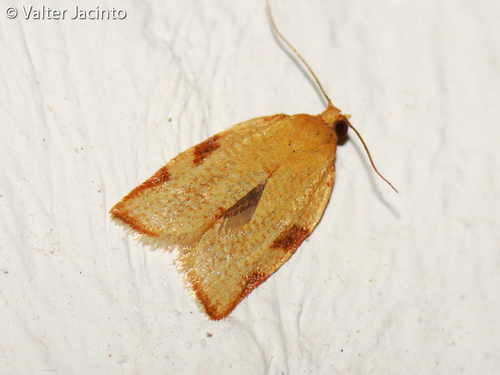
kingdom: Animalia
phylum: Arthropoda
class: Insecta
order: Lepidoptera
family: Tortricidae
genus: Clepsis
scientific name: Clepsis siciliana
